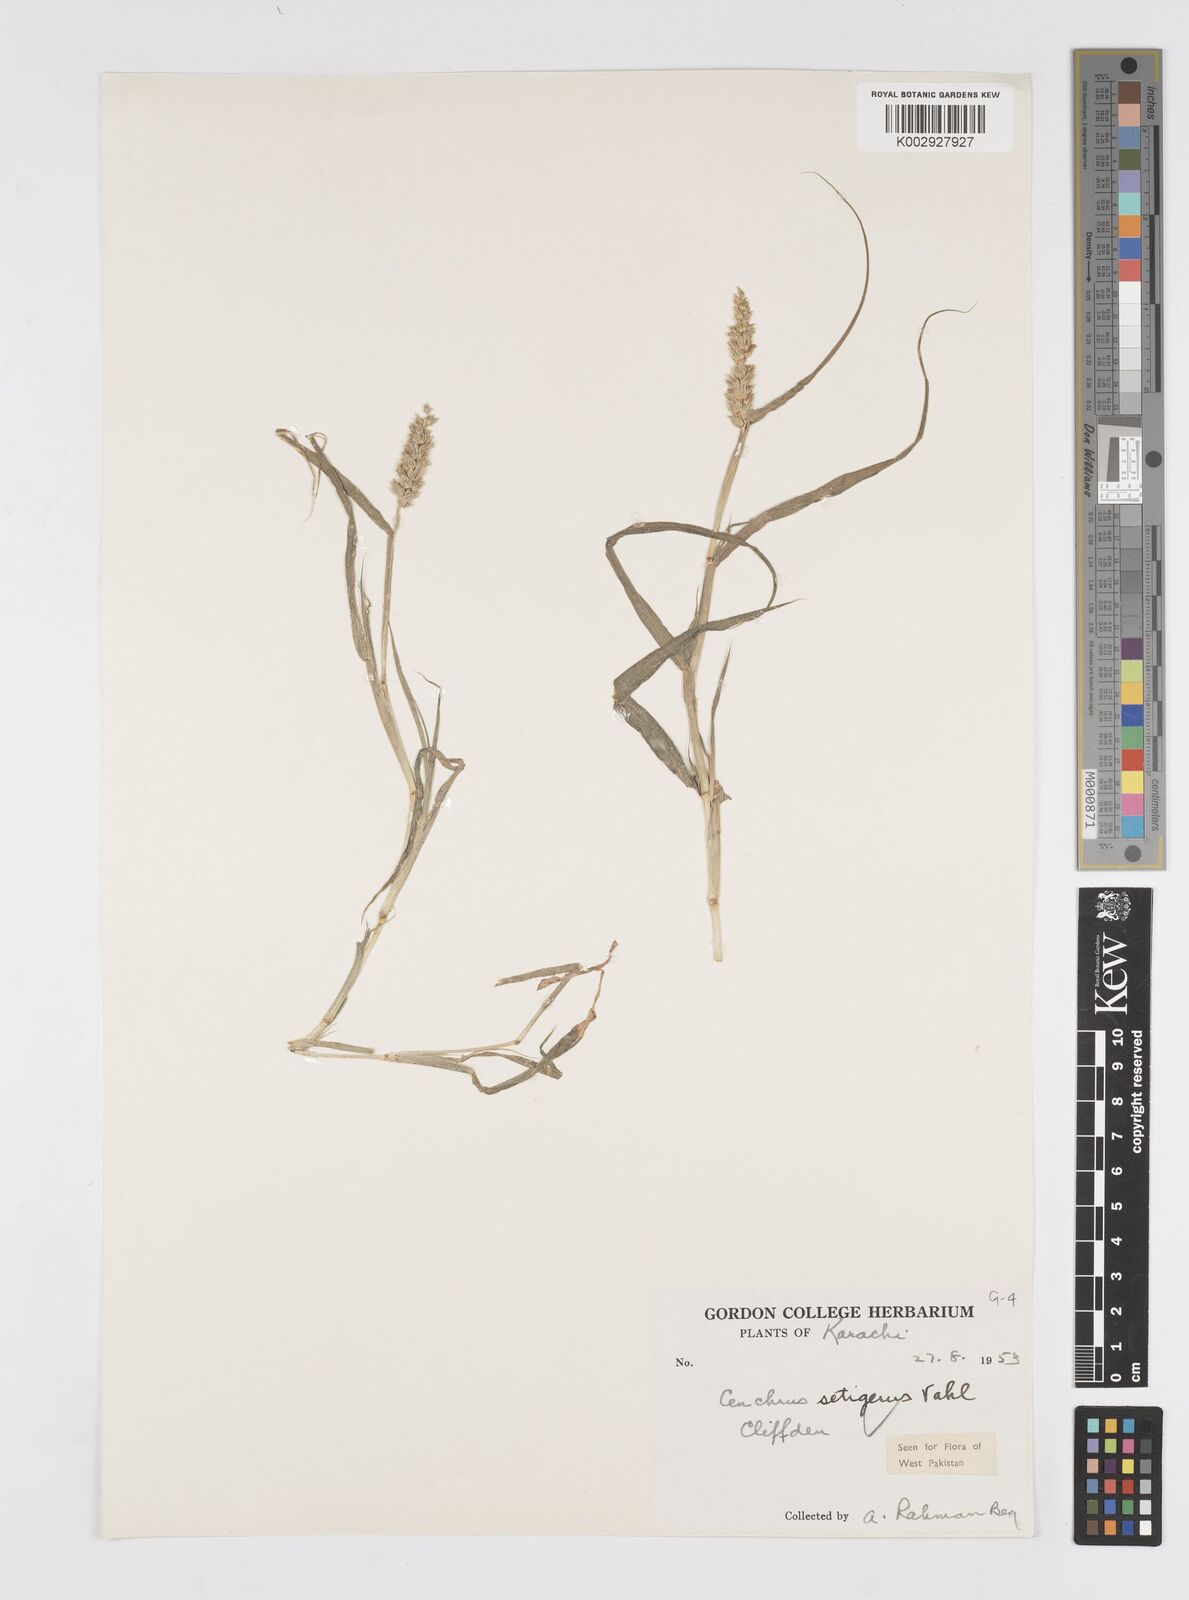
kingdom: Plantae
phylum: Tracheophyta
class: Liliopsida
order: Poales
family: Poaceae
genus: Cenchrus
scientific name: Cenchrus setigerus
